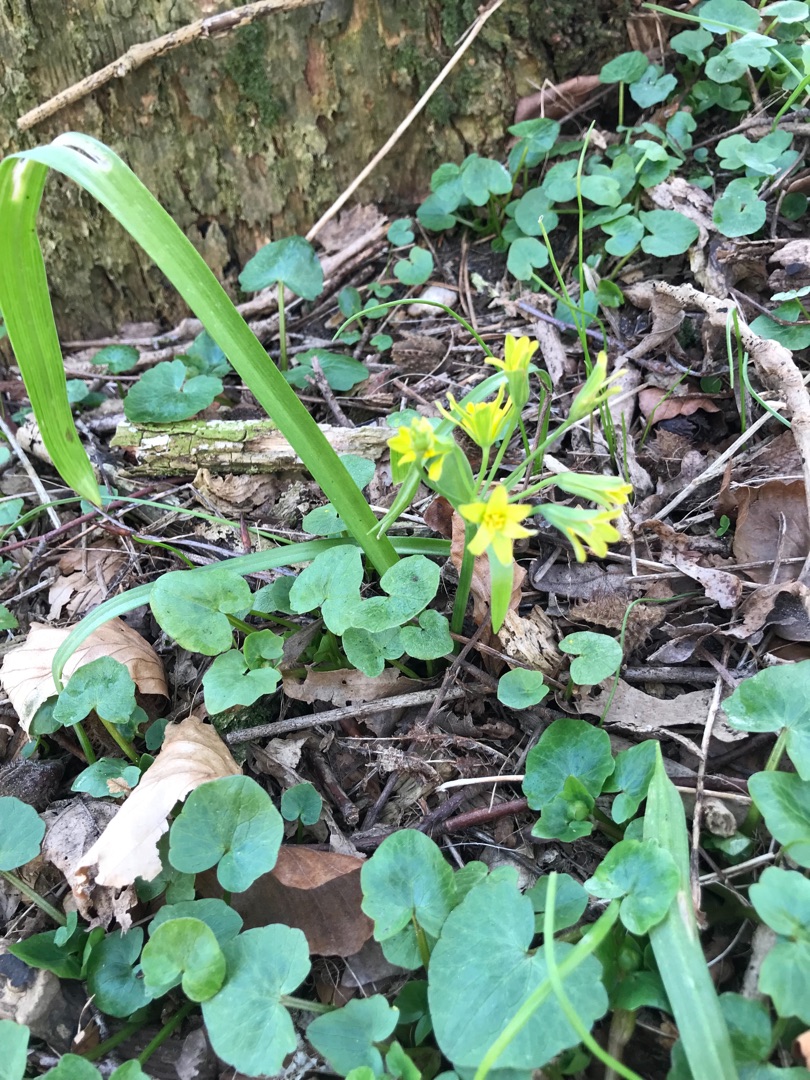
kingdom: Plantae
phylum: Tracheophyta
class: Liliopsida
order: Liliales
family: Liliaceae
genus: Gagea
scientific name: Gagea lutea
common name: Almindelig guldstjerne
